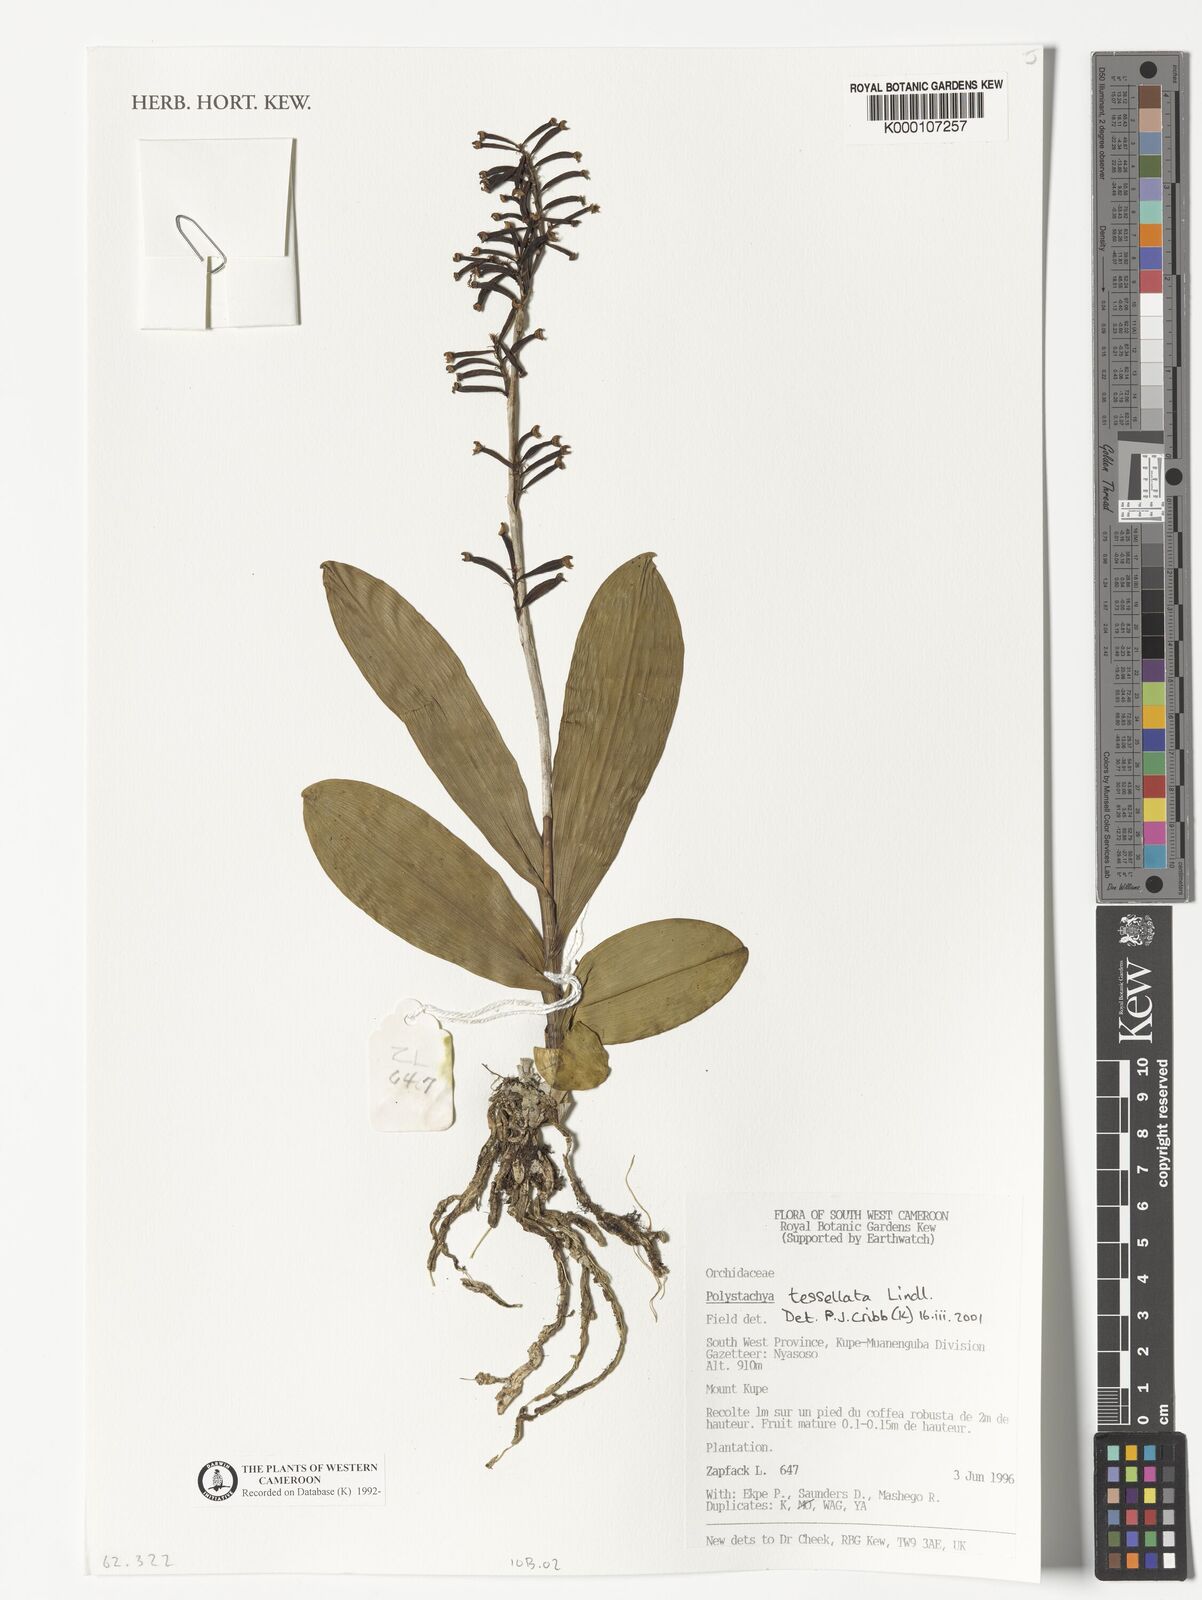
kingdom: Plantae
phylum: Tracheophyta
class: Liliopsida
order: Asparagales
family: Orchidaceae
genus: Polystachya
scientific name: Polystachya concreta
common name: Greater yellowspike orchid
